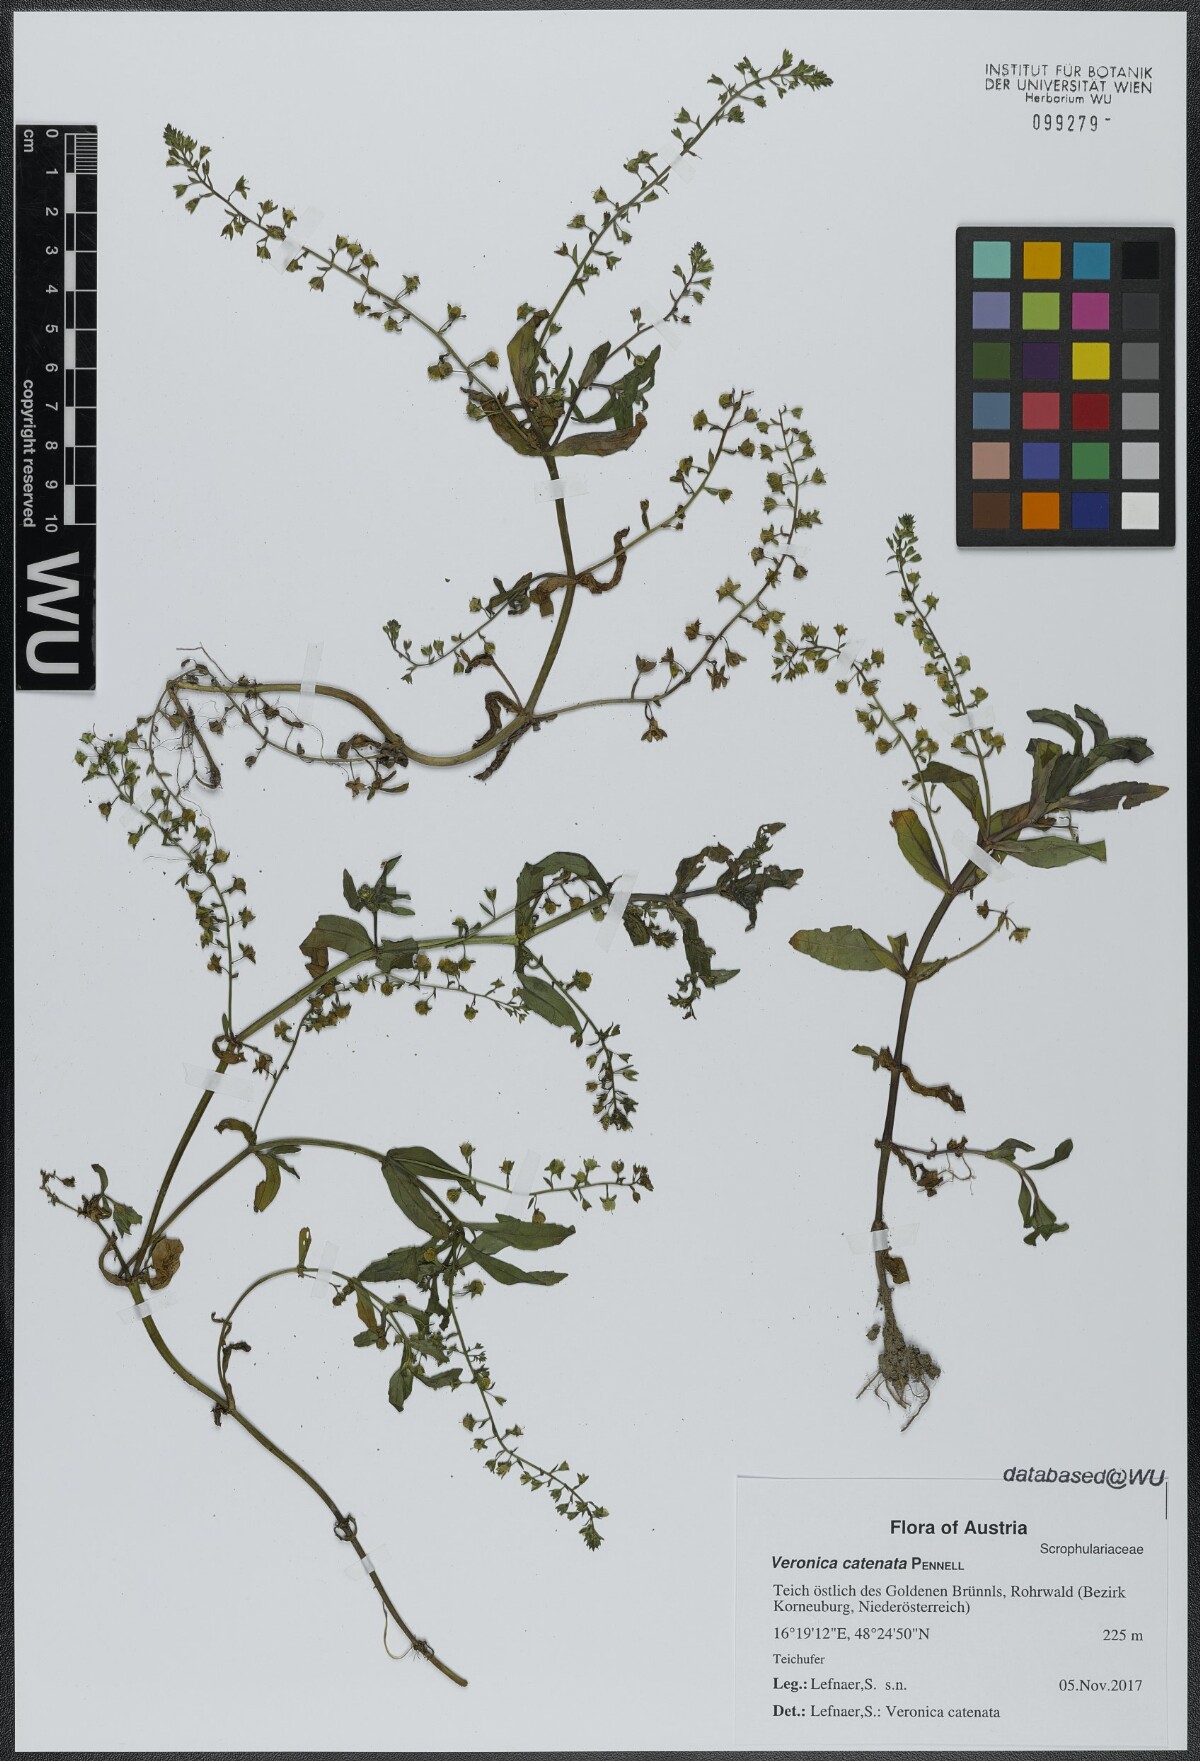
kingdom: Plantae
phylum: Tracheophyta
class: Magnoliopsida
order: Lamiales
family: Plantaginaceae
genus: Veronica
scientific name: Veronica catenata
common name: Pink water-speedwell
